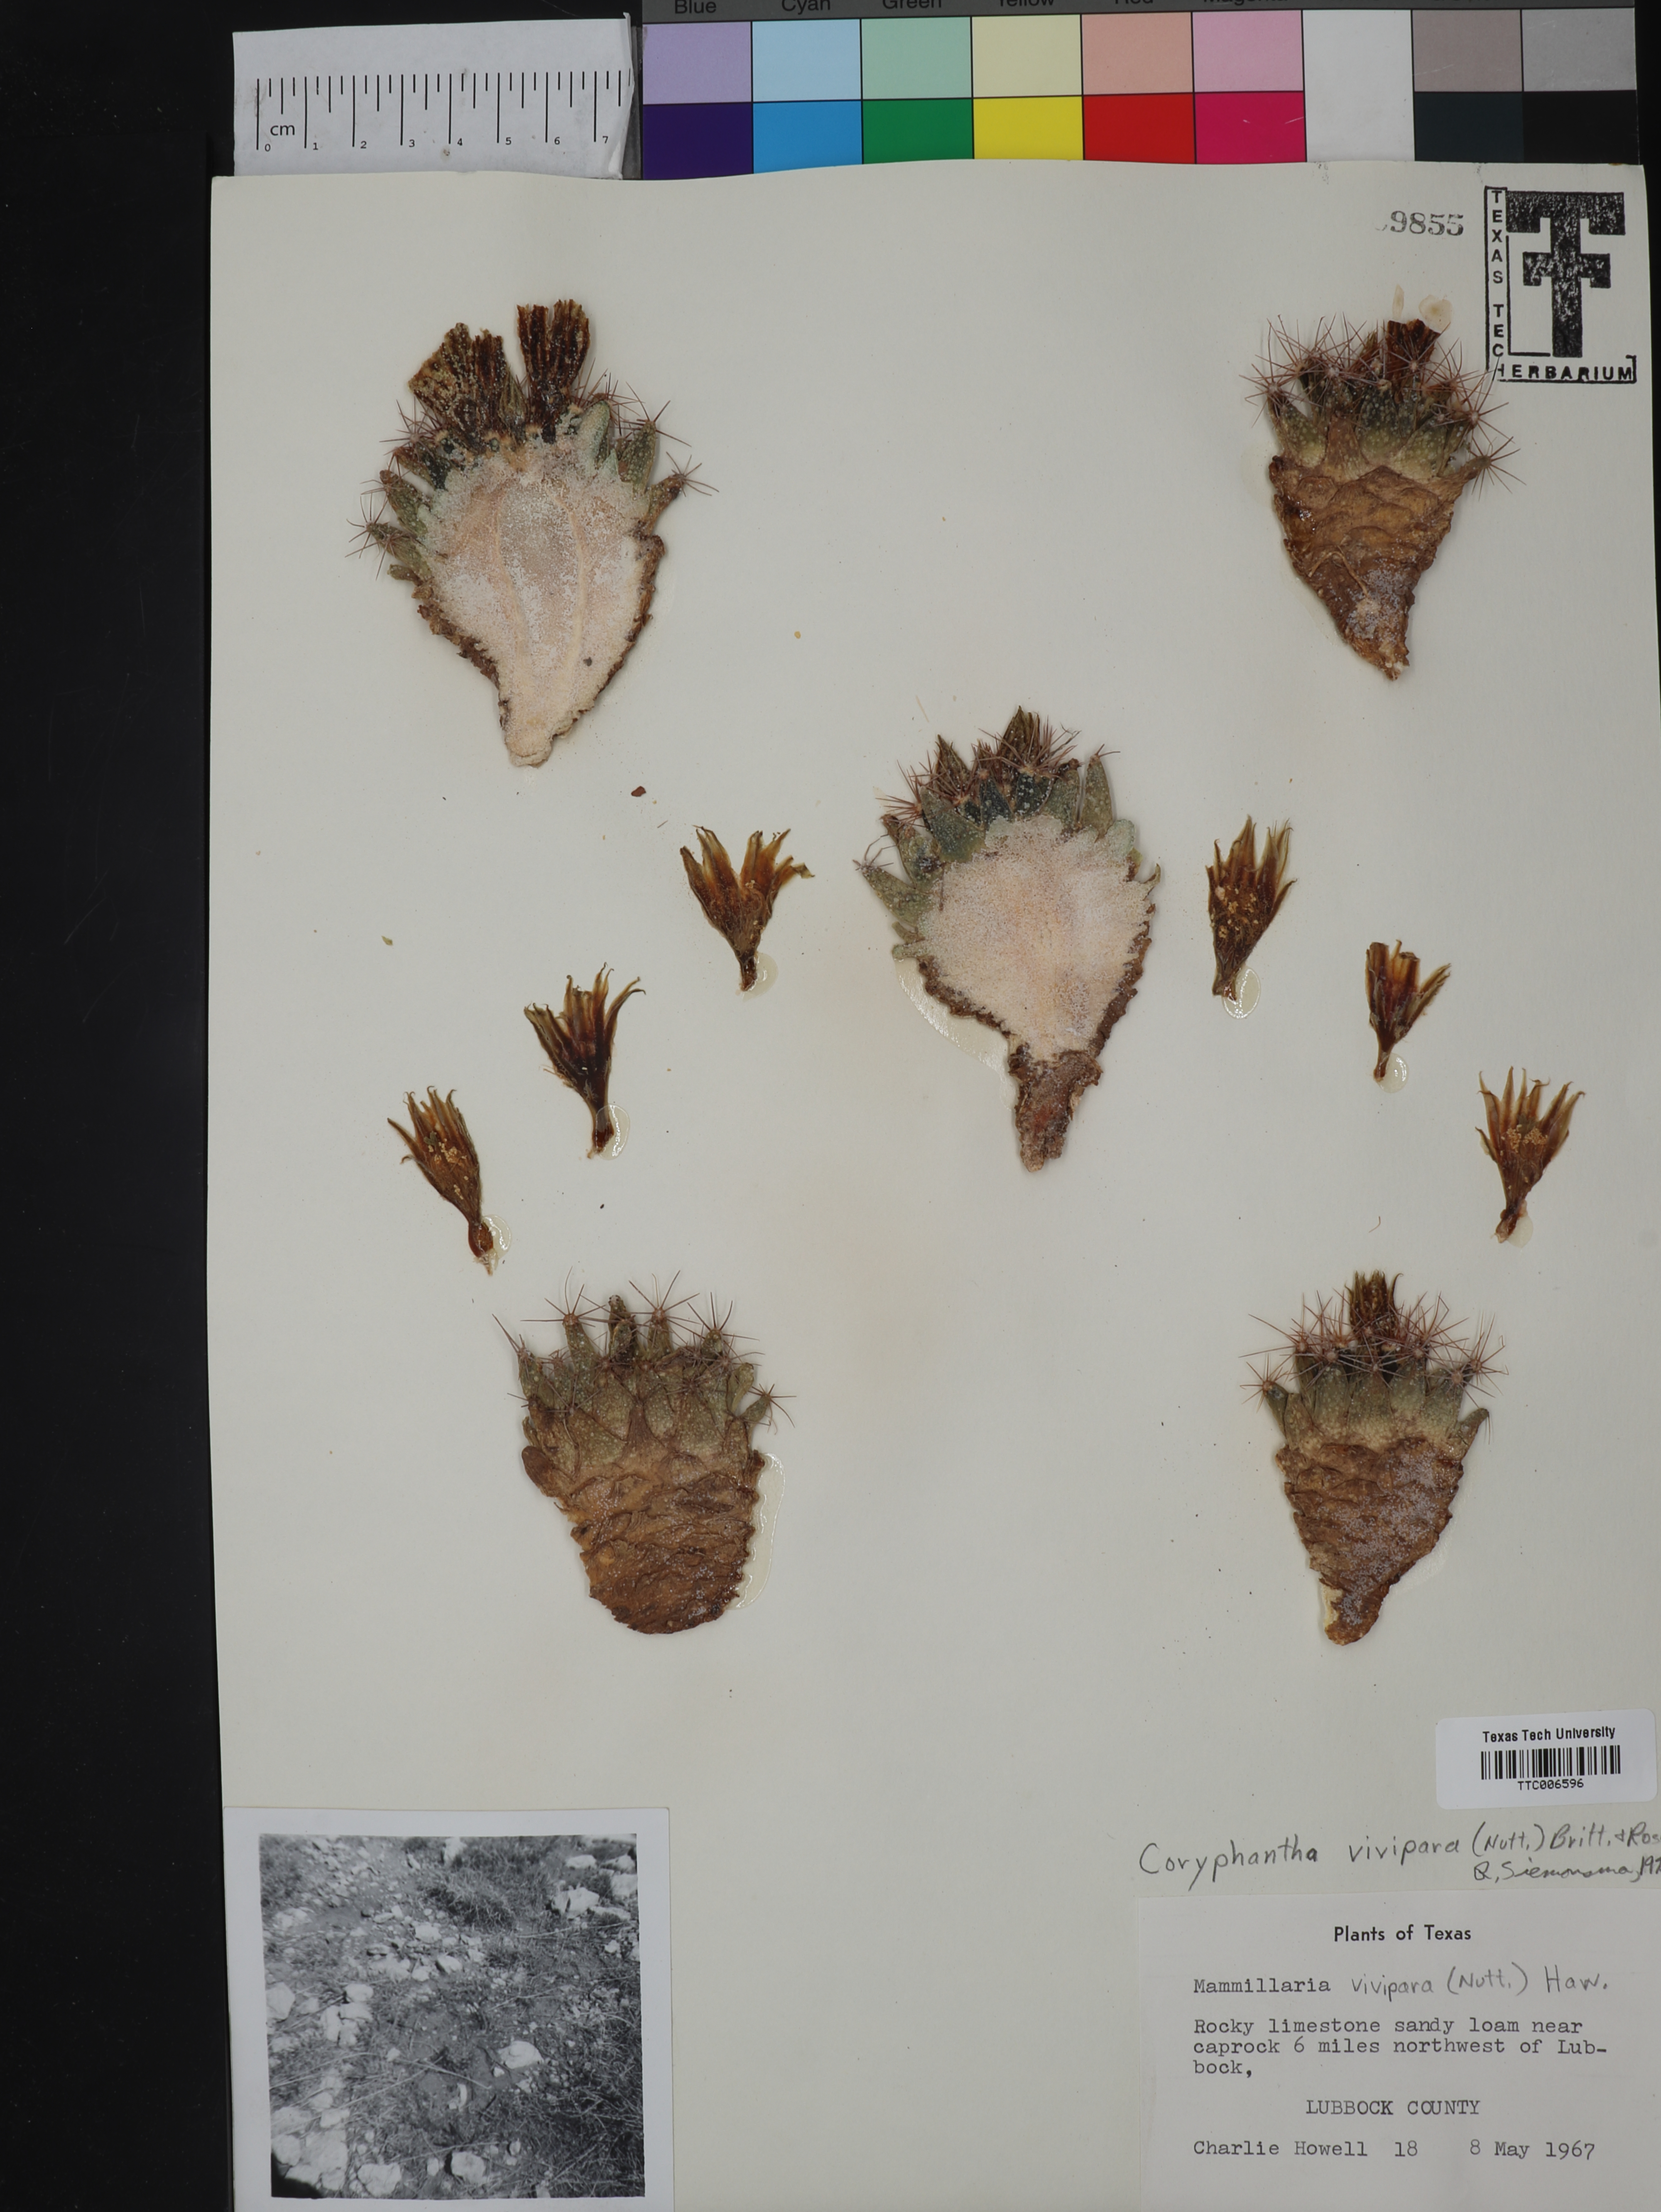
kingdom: Plantae
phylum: Tracheophyta
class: Magnoliopsida
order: Caryophyllales
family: Cactaceae
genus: Pelecyphora
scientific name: Pelecyphora vivipara
